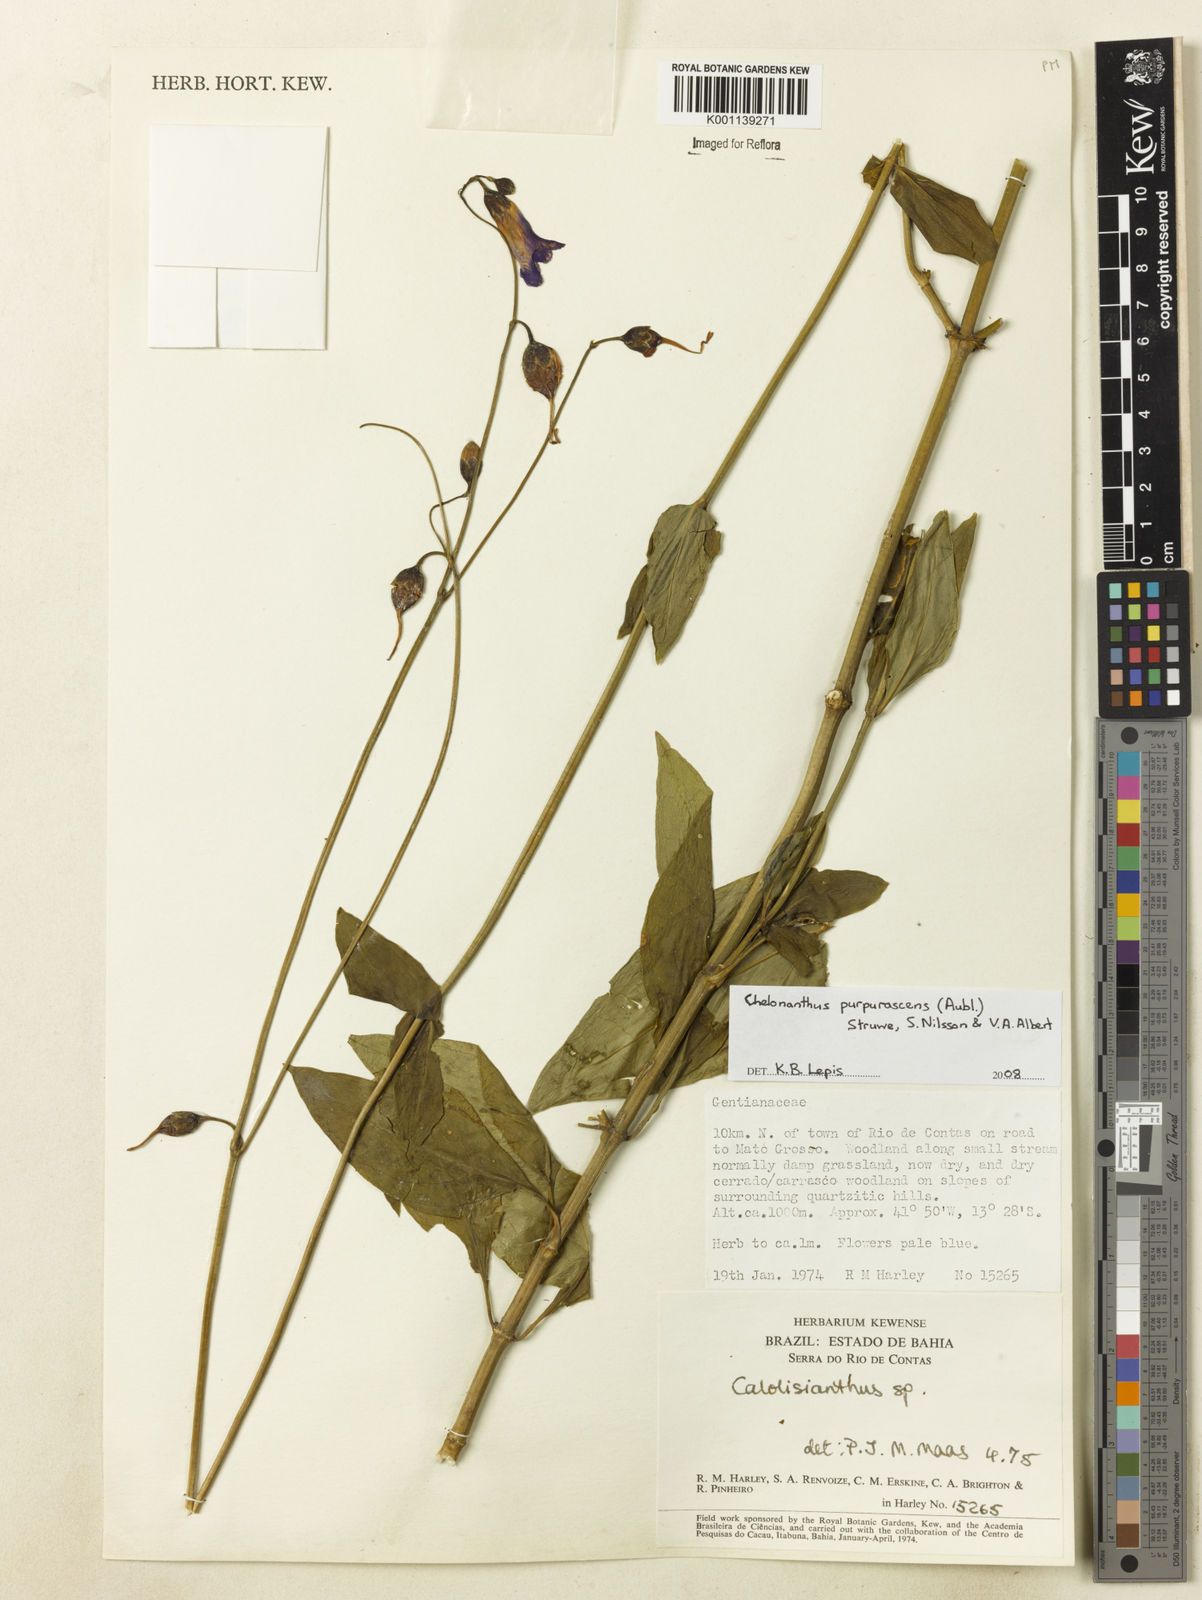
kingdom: Plantae
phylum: Tracheophyta
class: Magnoliopsida
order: Gentianales
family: Gentianaceae
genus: Chelonanthus
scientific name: Chelonanthus purpurascens
